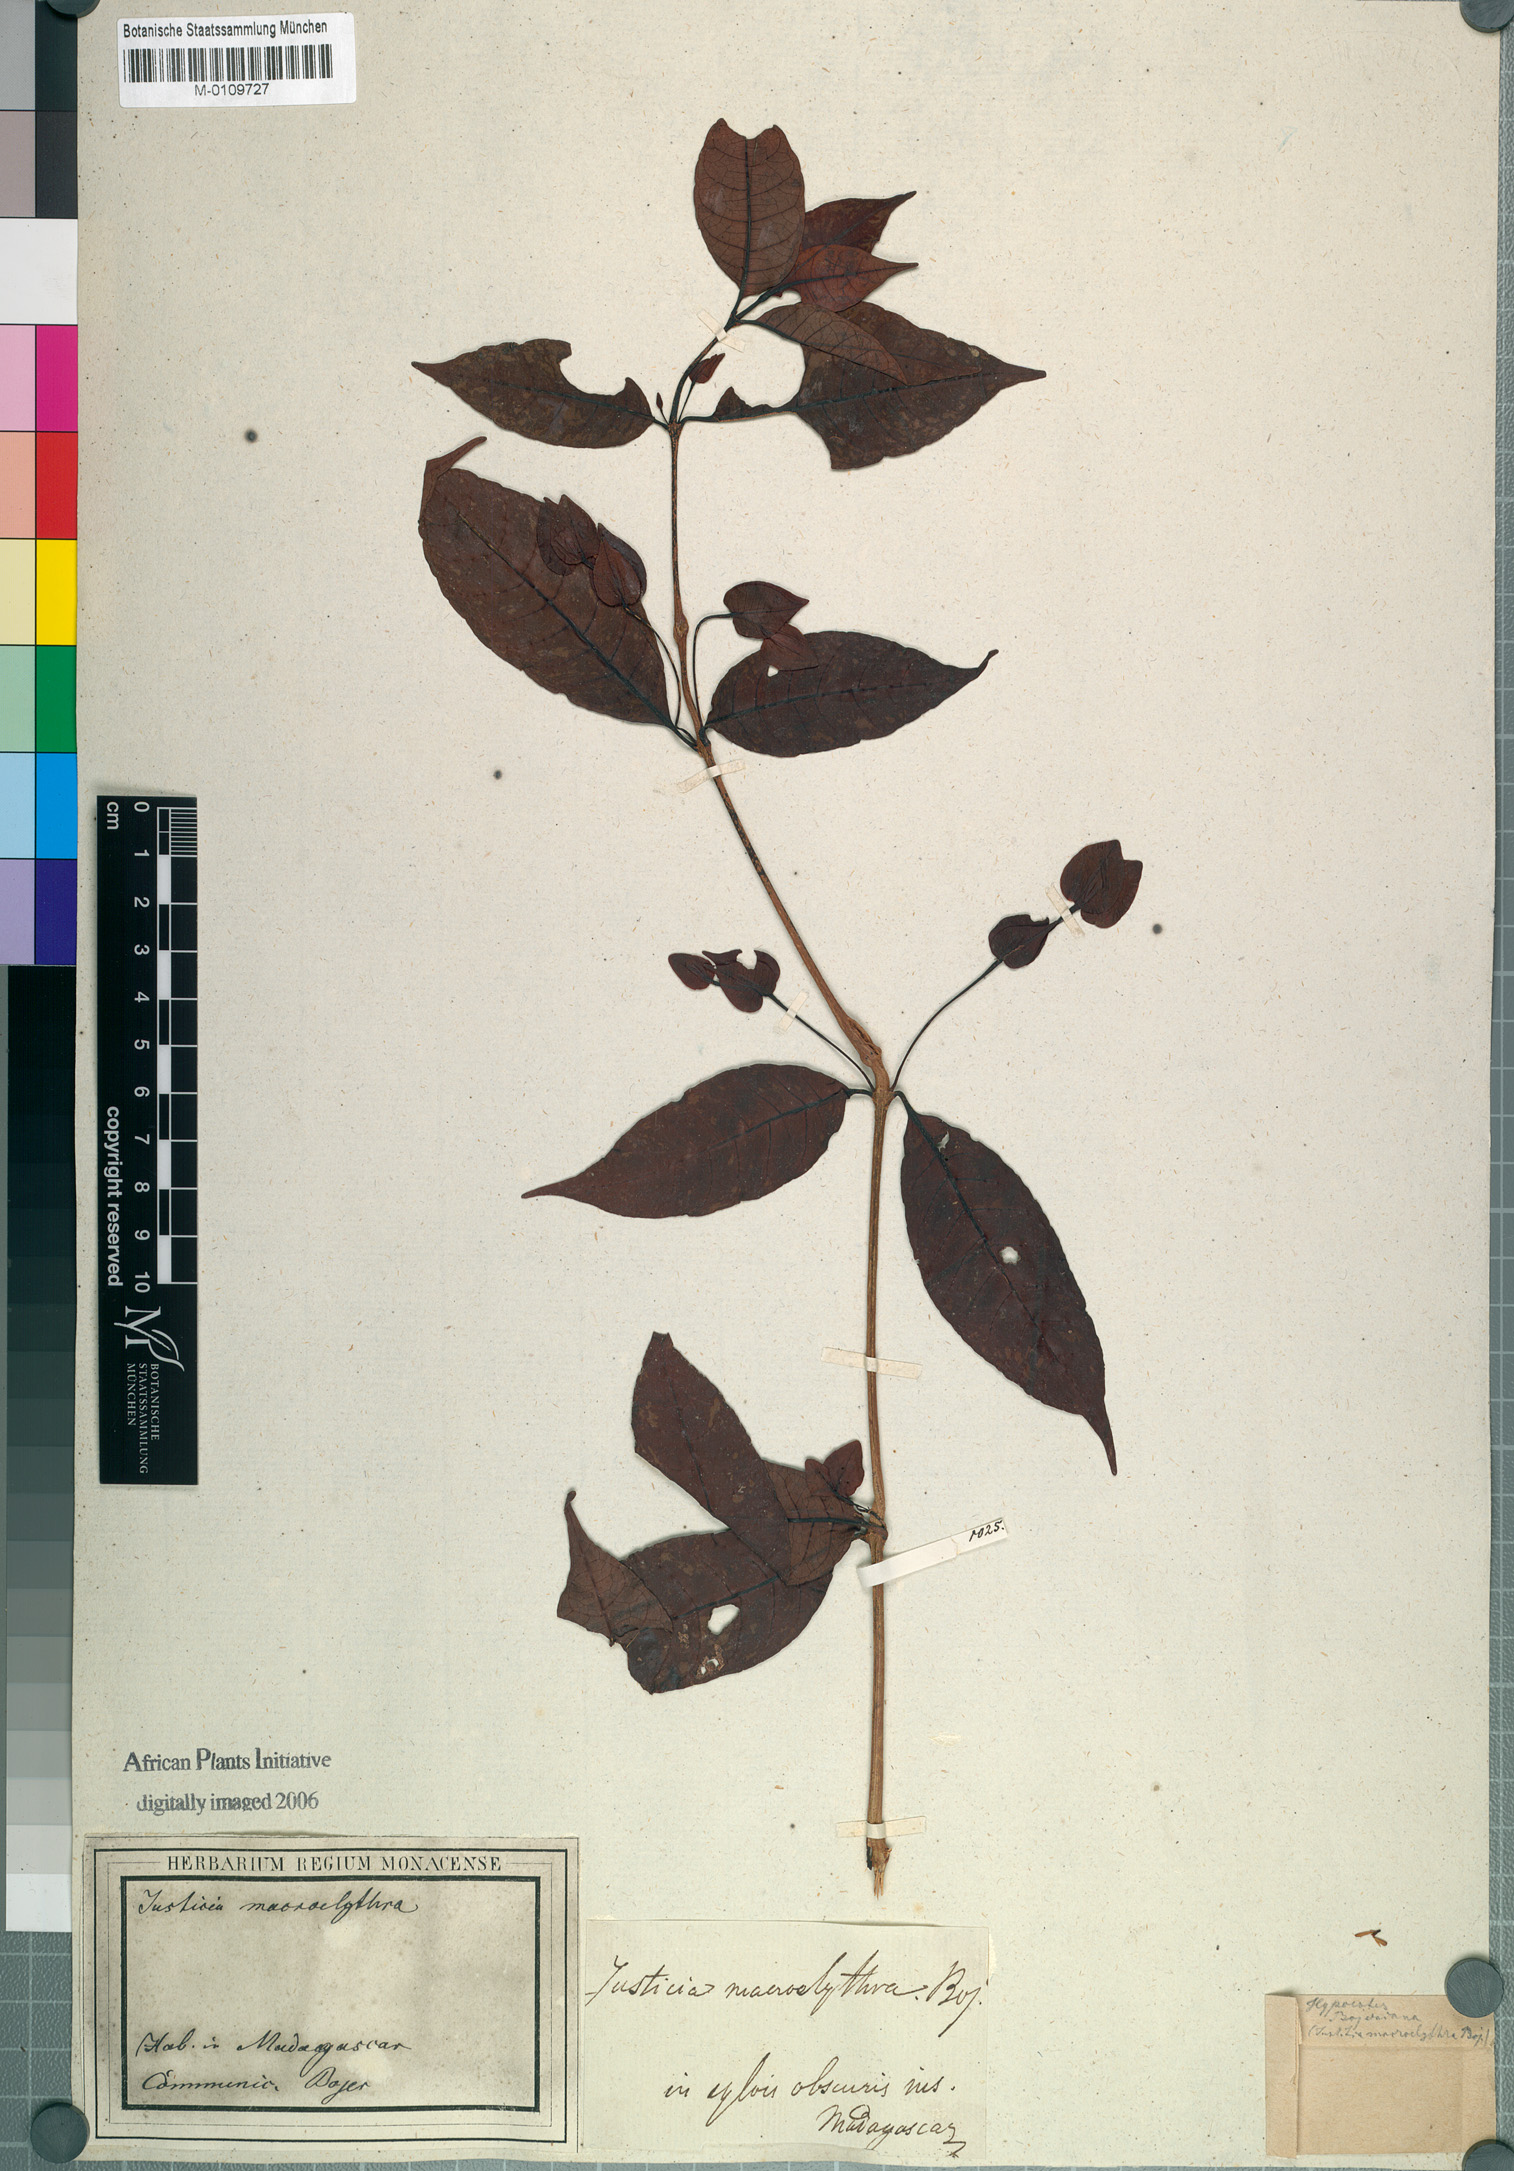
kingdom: Plantae
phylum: Tracheophyta
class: Magnoliopsida
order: Lamiales
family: Acanthaceae
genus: Hypoestes
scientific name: Hypoestes bojeriana
